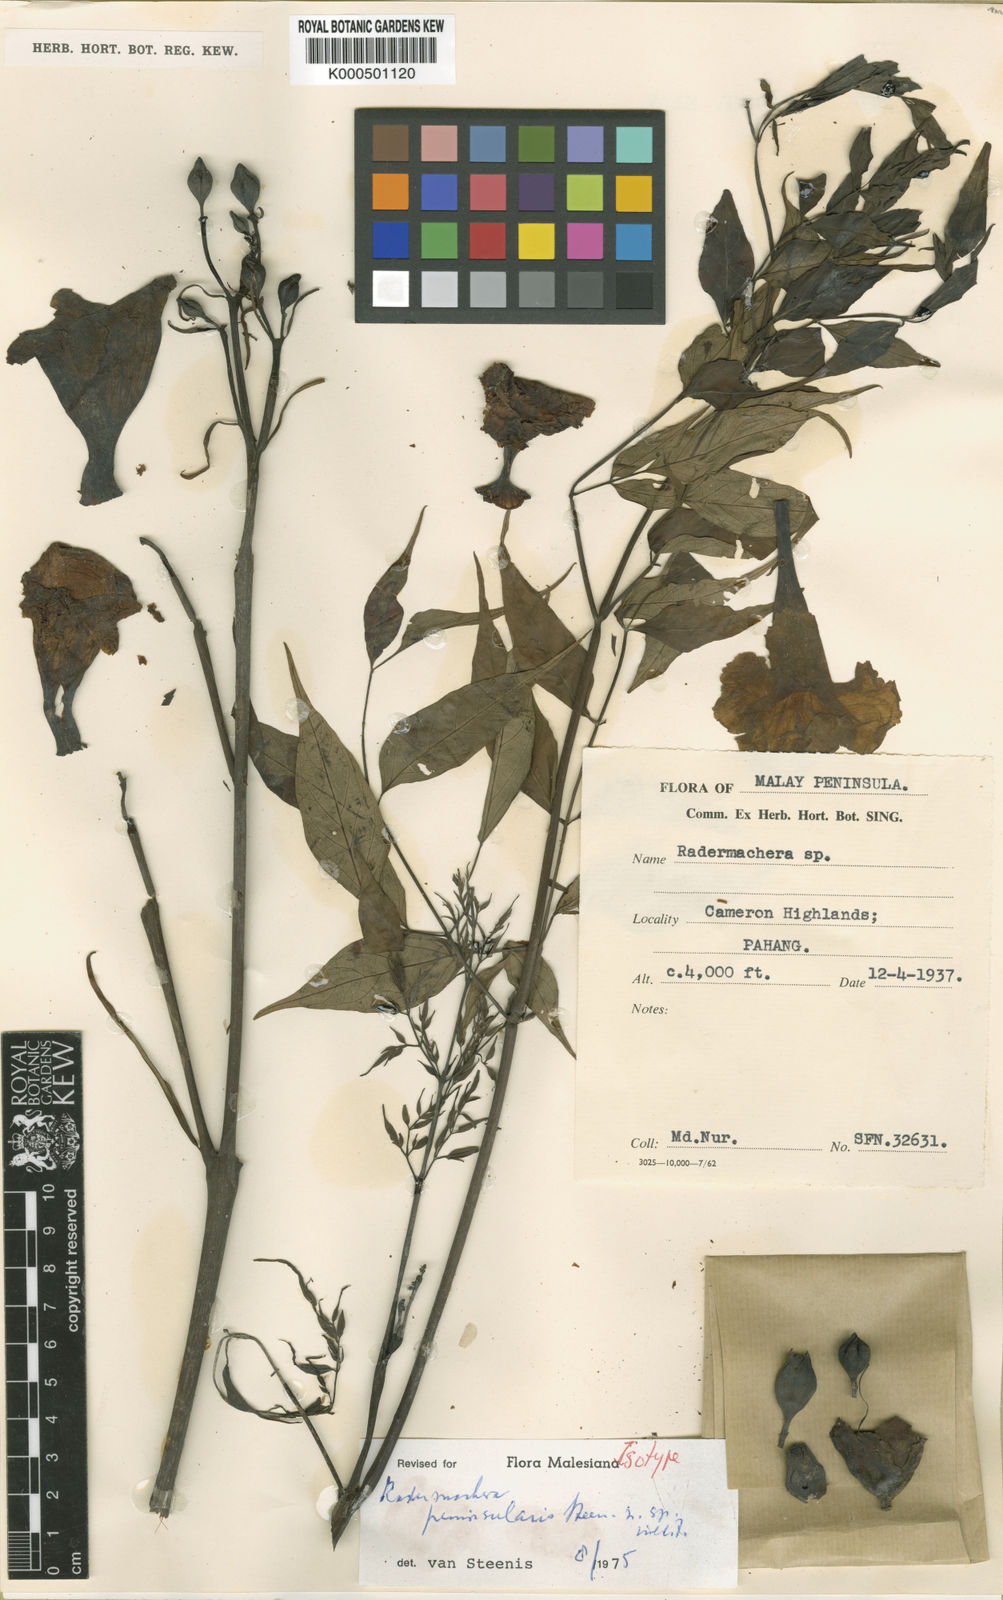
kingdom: Plantae
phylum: Tracheophyta
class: Magnoliopsida
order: Lamiales
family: Bignoniaceae
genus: Radermachera
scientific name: Radermachera peninsularis
